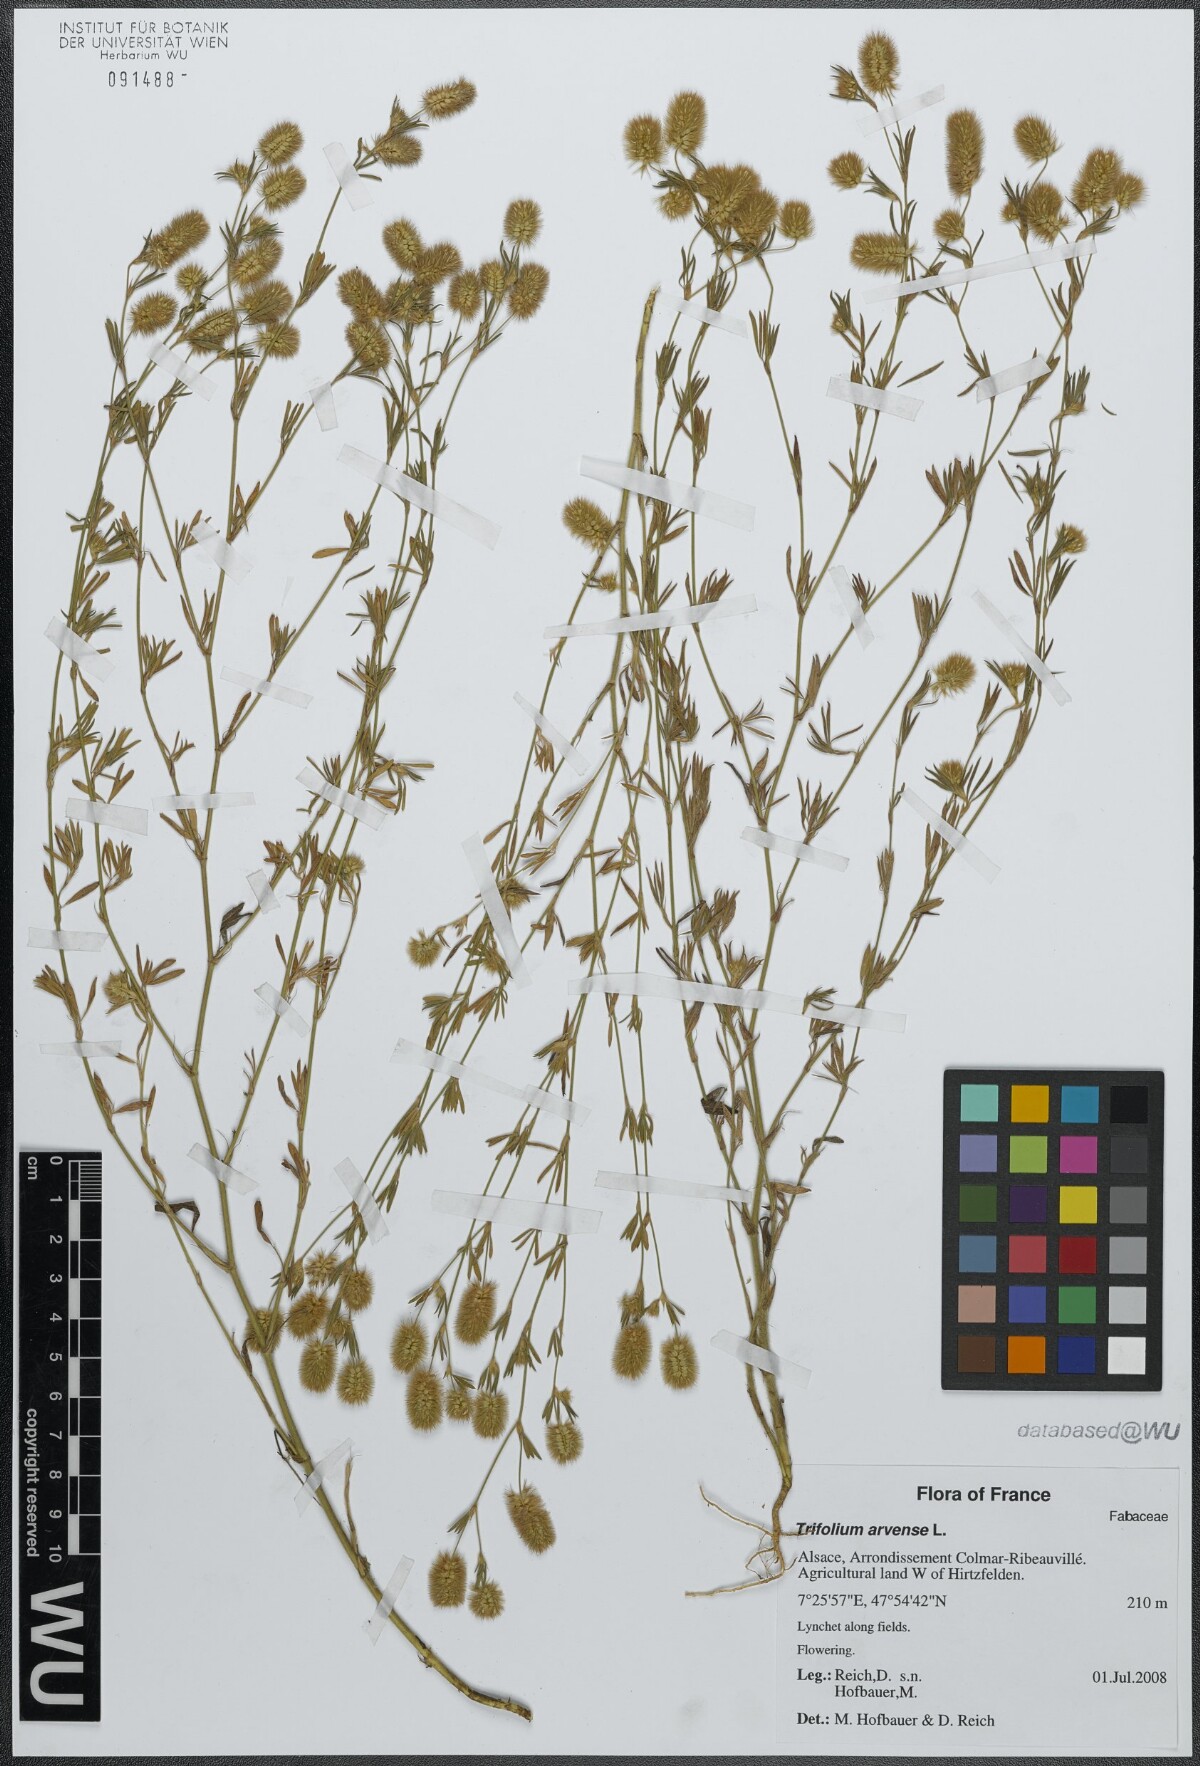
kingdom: Plantae
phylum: Tracheophyta
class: Magnoliopsida
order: Fabales
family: Fabaceae
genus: Trifolium
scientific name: Trifolium arvense
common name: Hare's-foot clover
